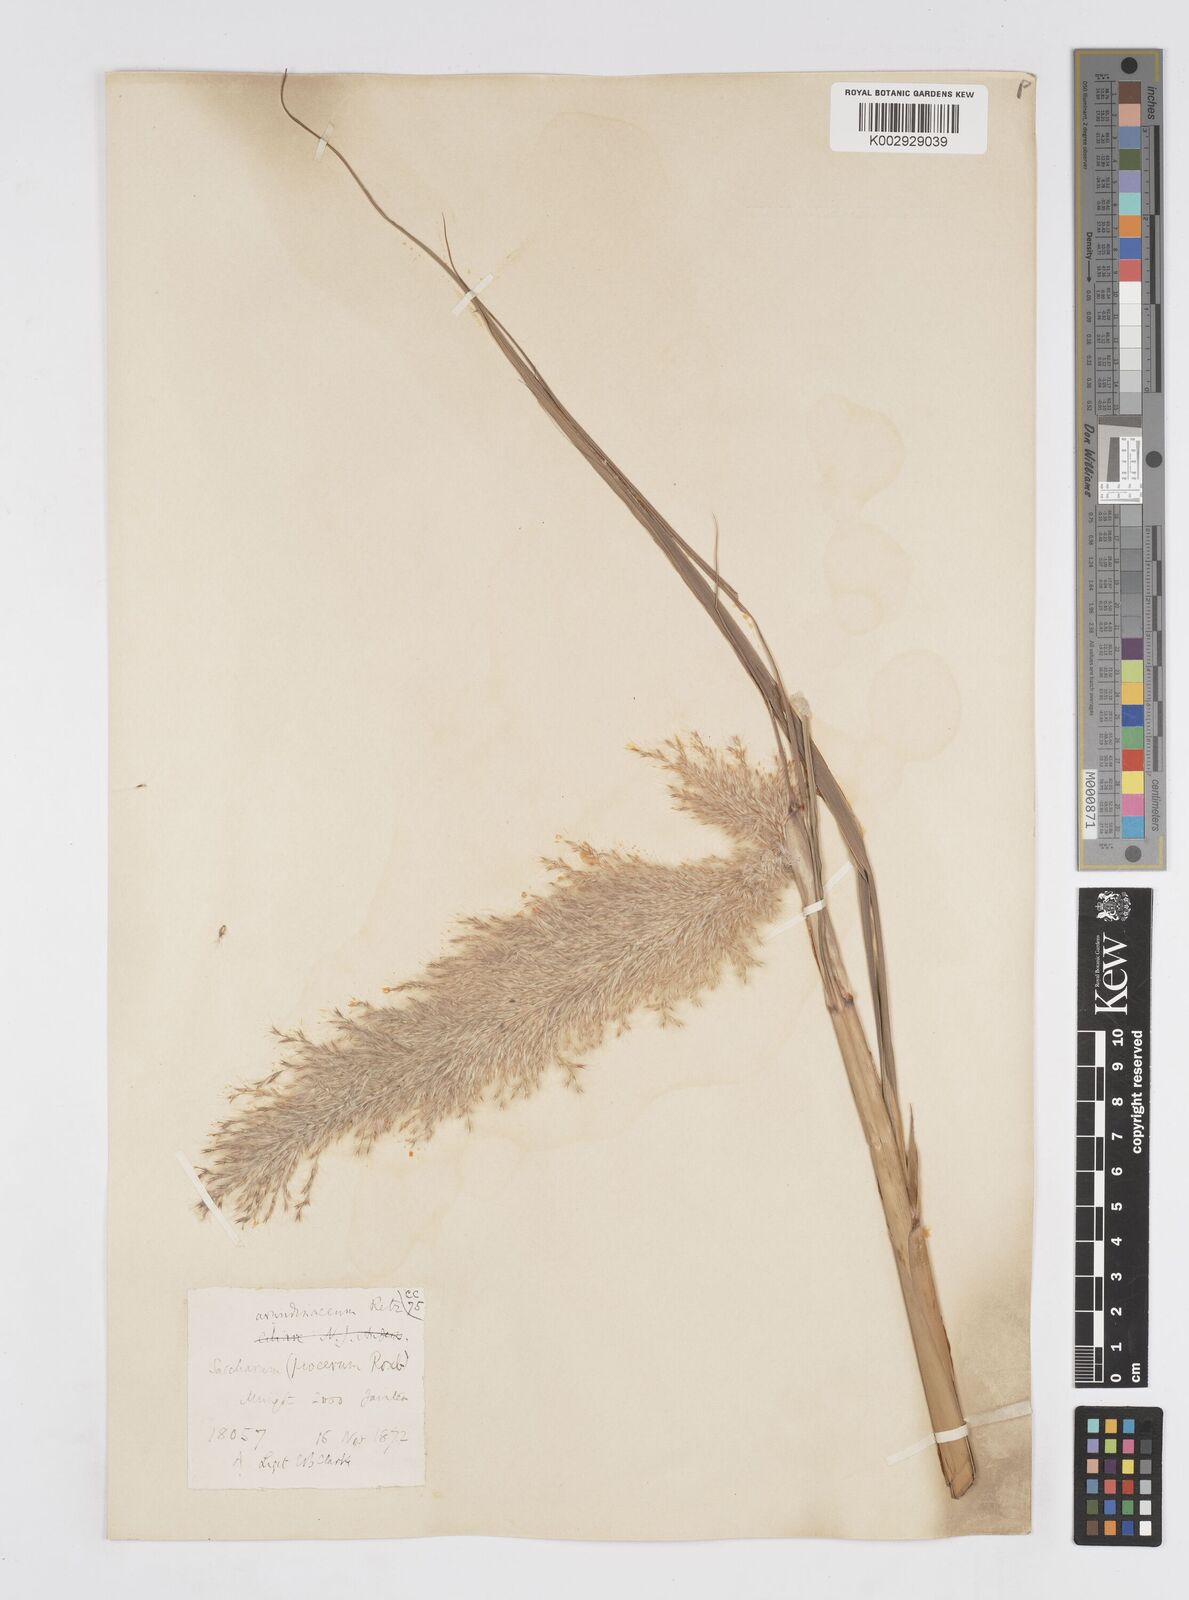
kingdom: Plantae
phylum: Tracheophyta
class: Liliopsida
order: Poales
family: Poaceae
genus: Tripidium
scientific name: Tripidium arundinaceum
